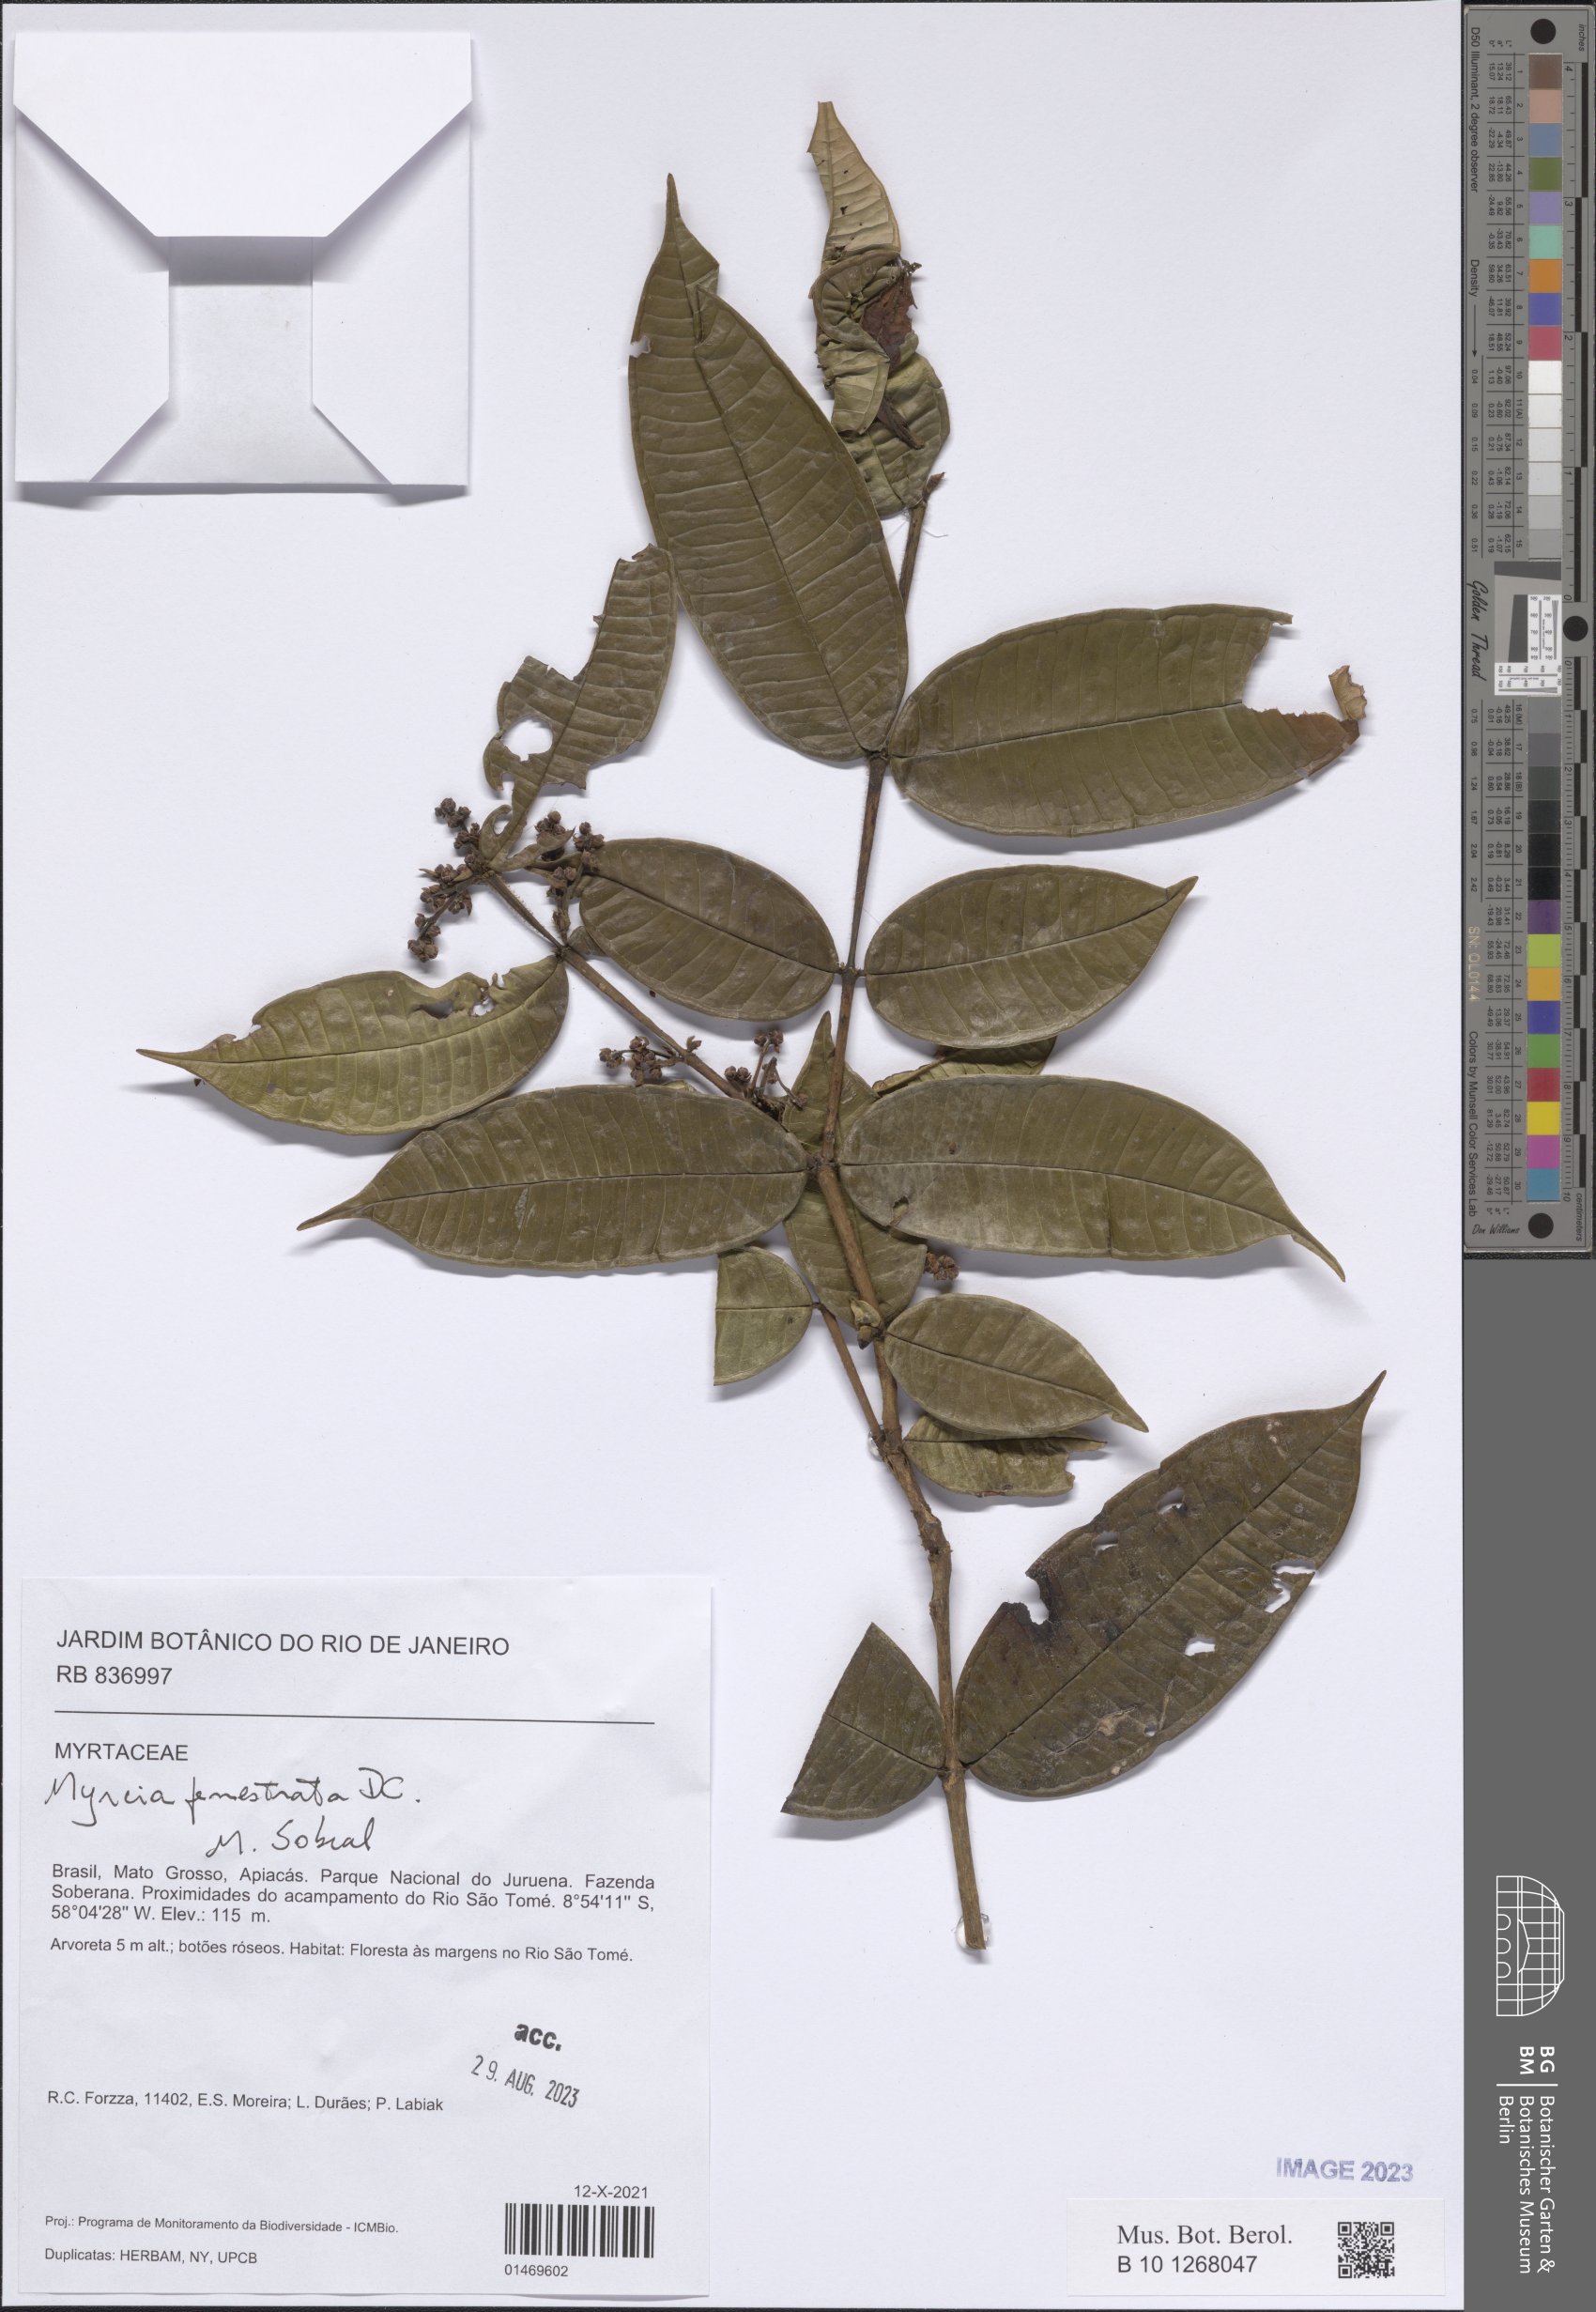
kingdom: Plantae
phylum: Tracheophyta
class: Magnoliopsida
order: Myrtales
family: Myrtaceae
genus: Myrcia
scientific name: Myrcia fenestrata
